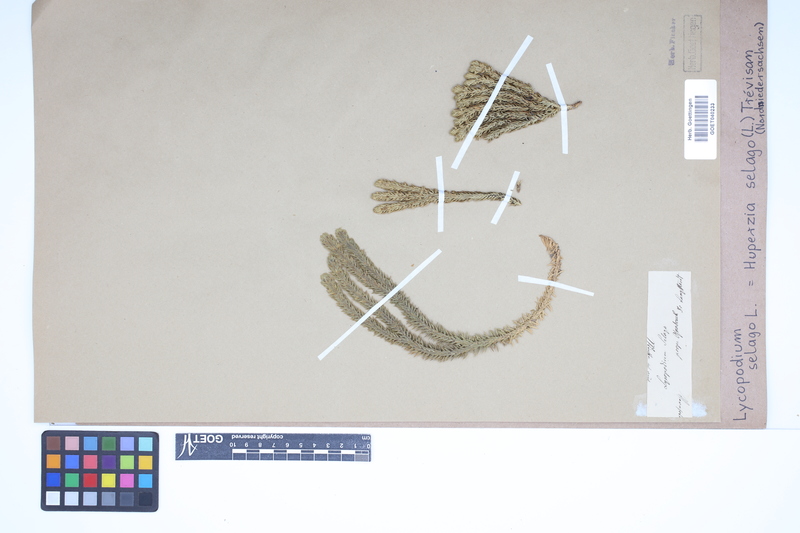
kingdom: Plantae
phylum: Tracheophyta
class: Lycopodiopsida
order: Lycopodiales
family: Lycopodiaceae
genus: Huperzia
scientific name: Huperzia selago
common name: Northern firmoss
